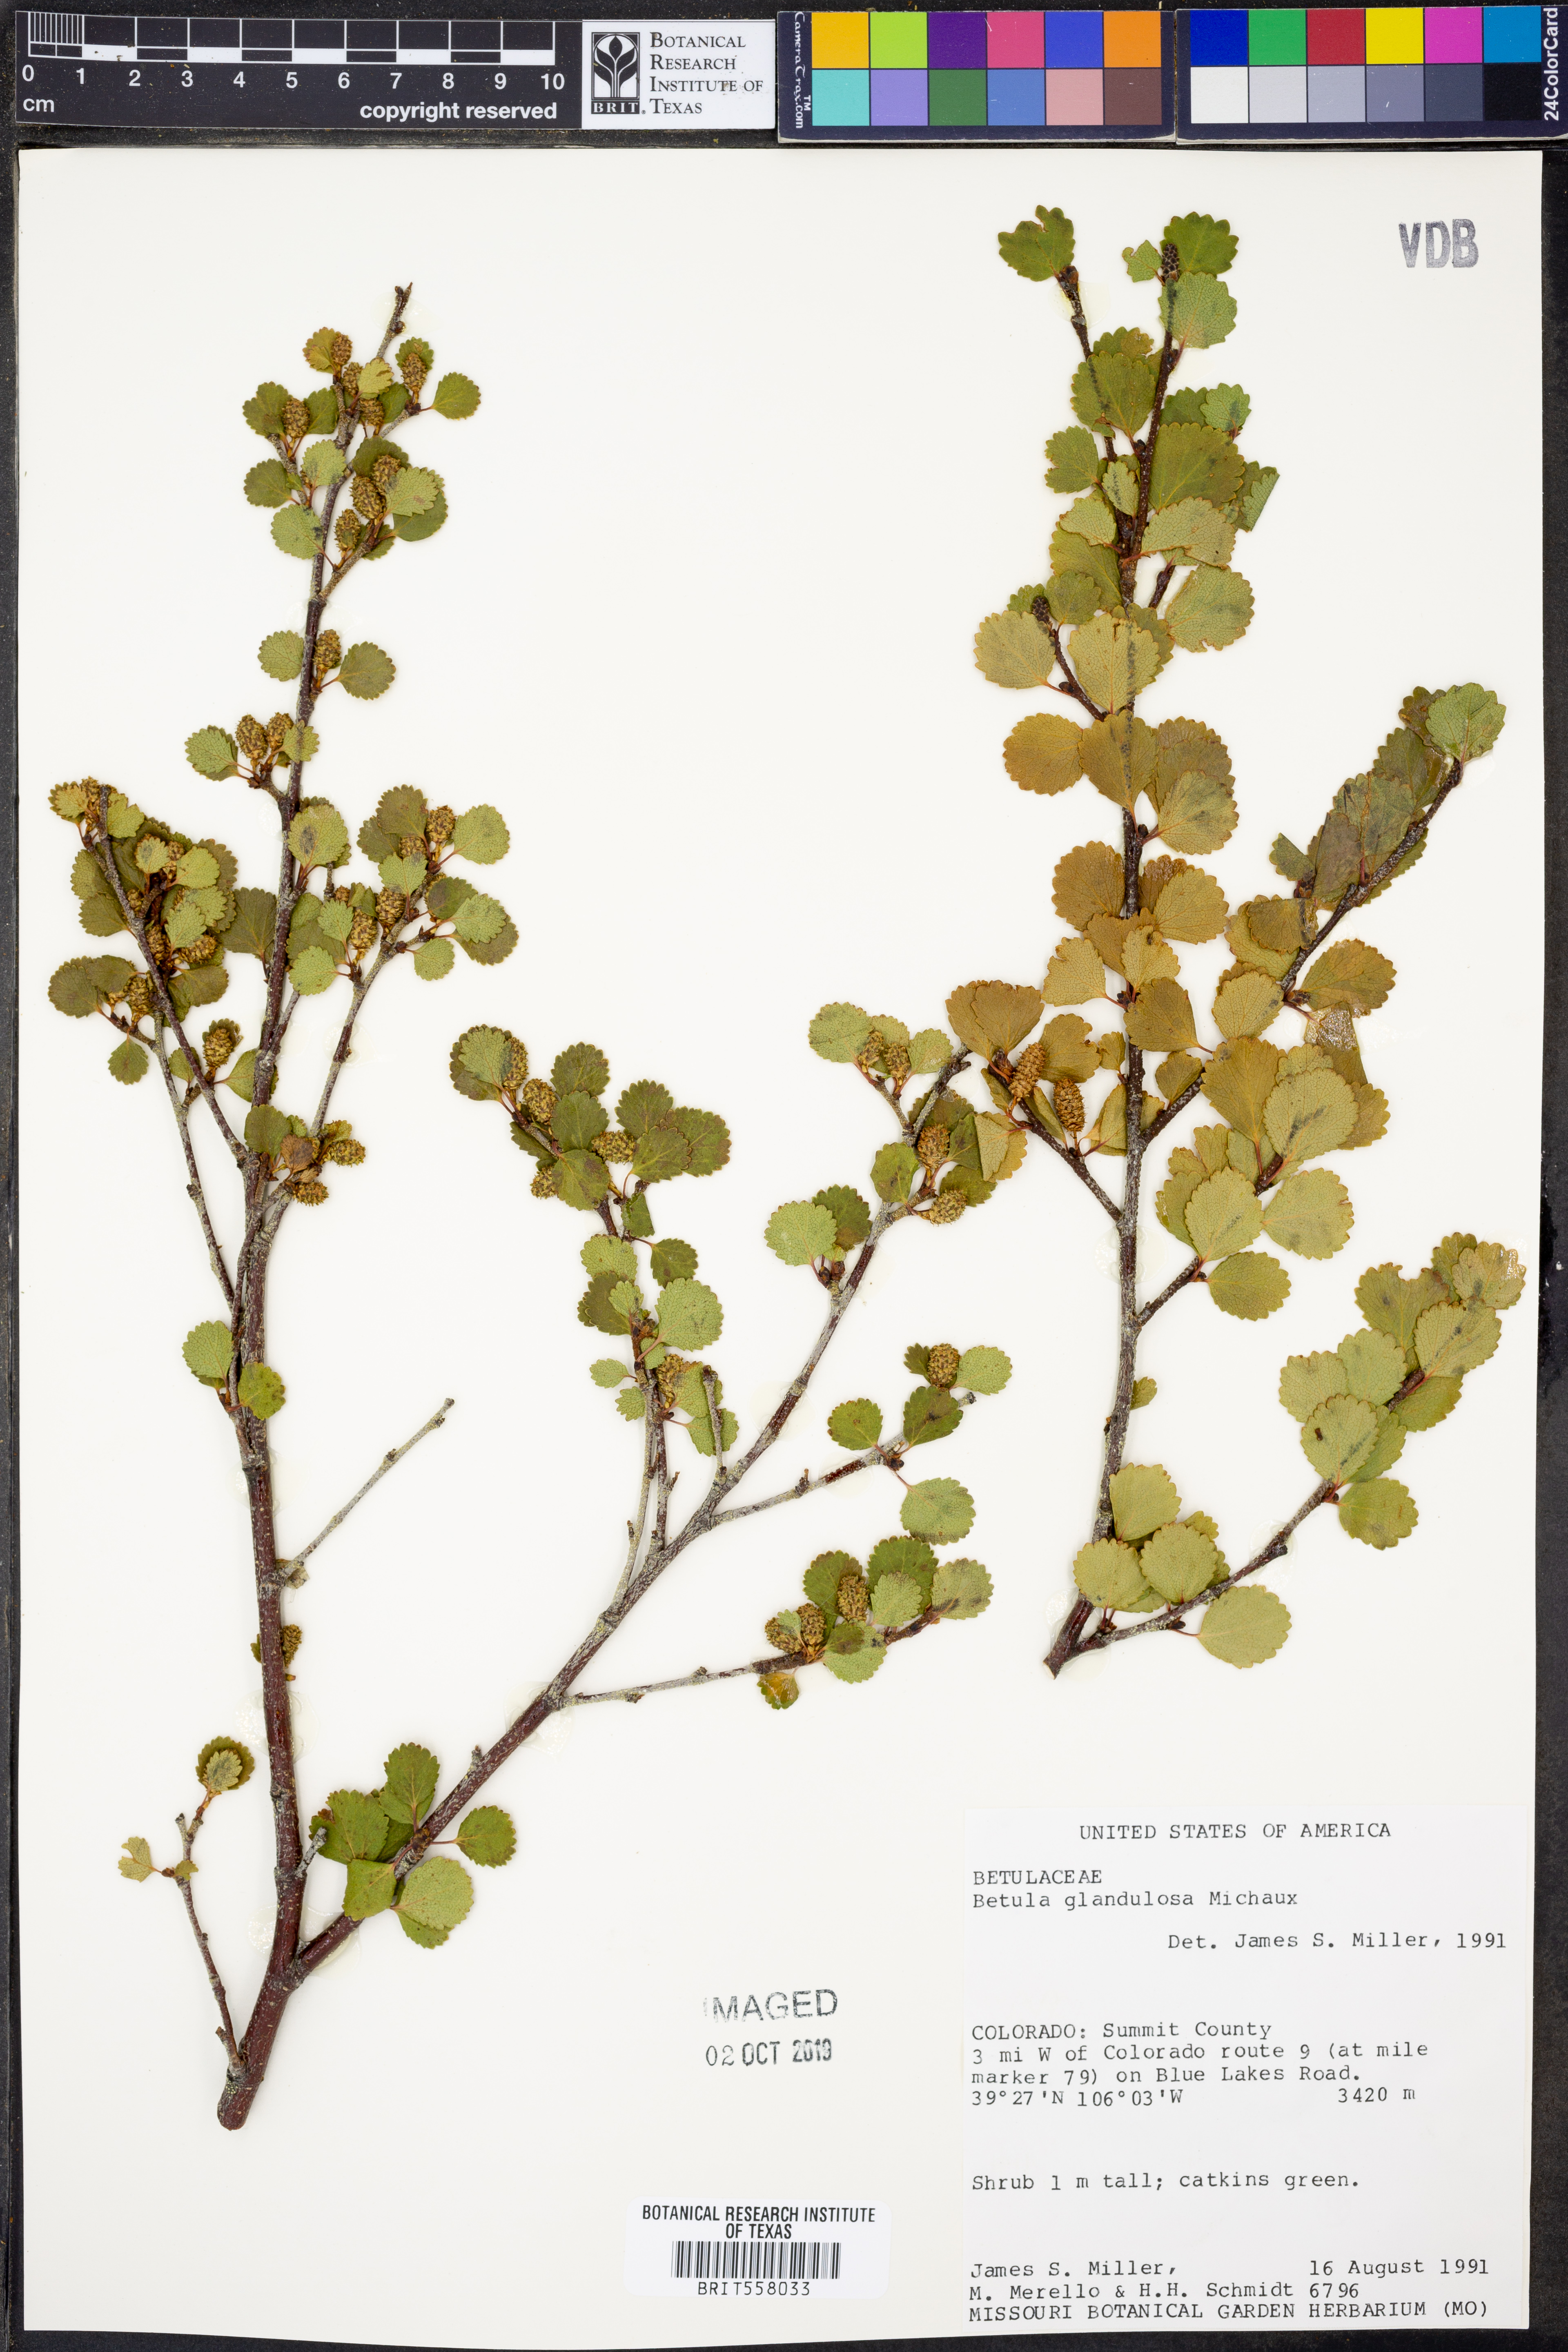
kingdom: Plantae
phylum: Tracheophyta
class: Magnoliopsida
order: Fagales
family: Betulaceae
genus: Betula
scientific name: Betula glandulosa
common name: Dwarf birch
